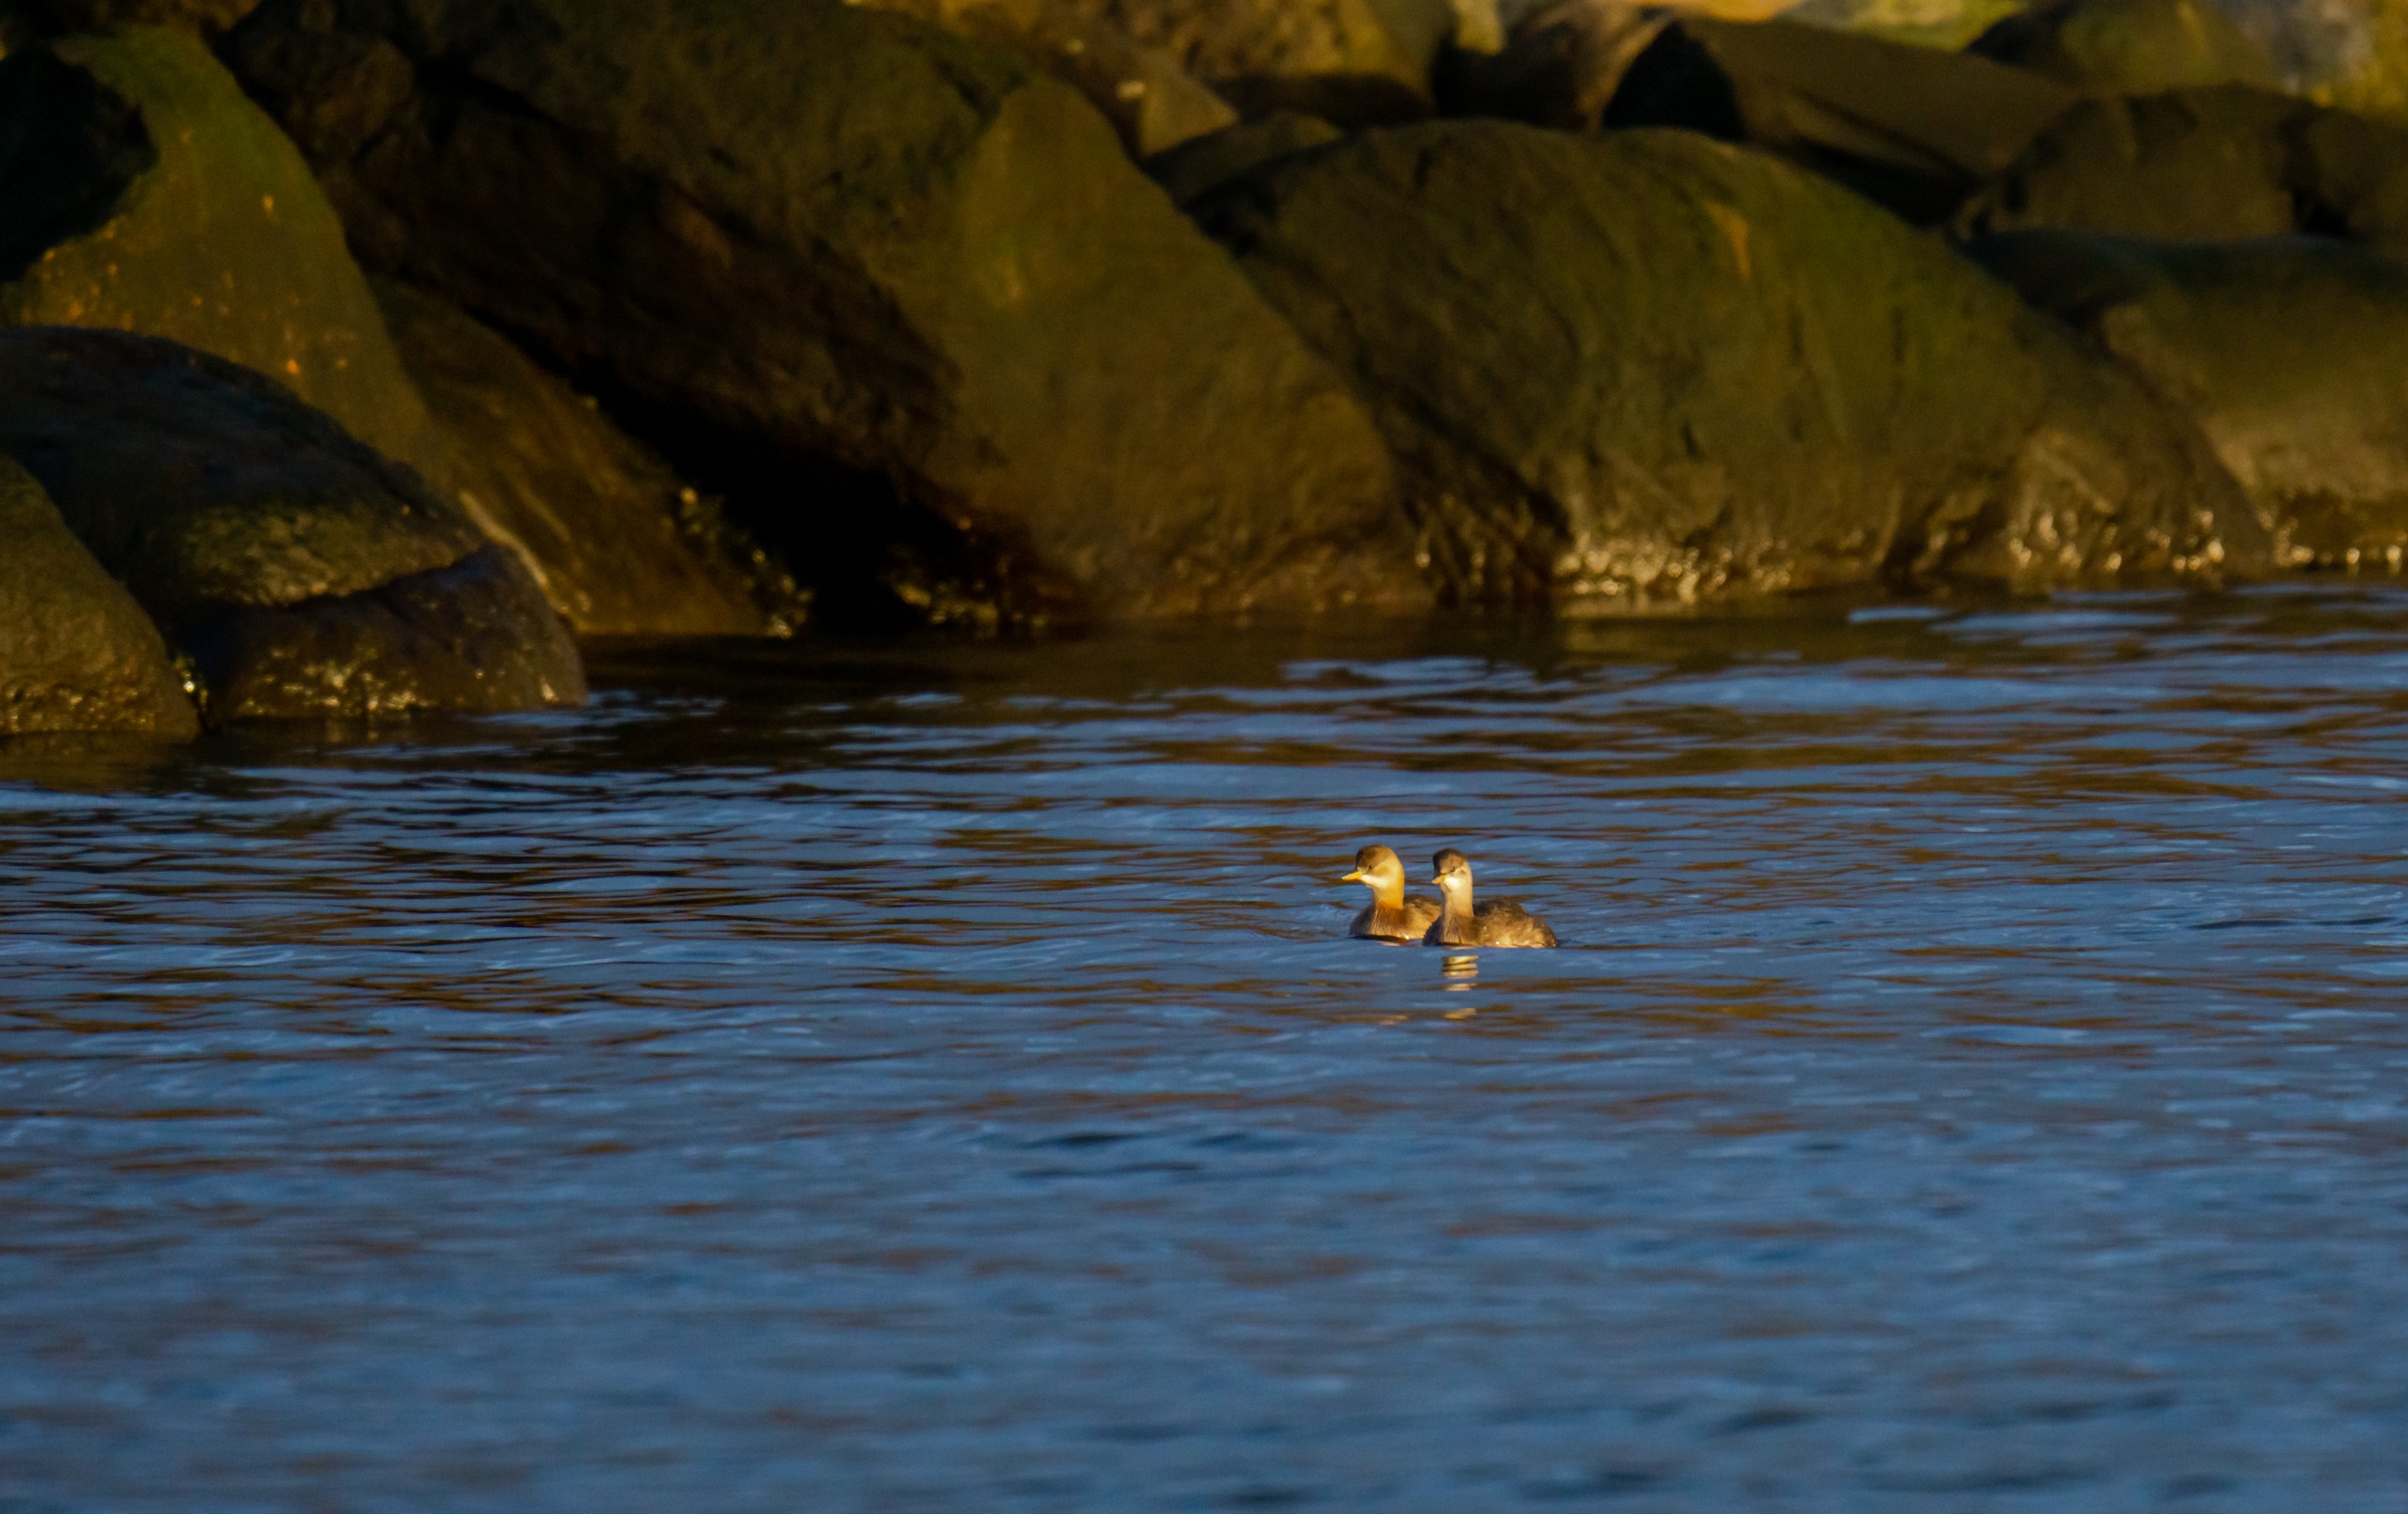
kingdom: Animalia
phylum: Chordata
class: Aves
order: Podicipediformes
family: Podicipedidae
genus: Tachybaptus
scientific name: Tachybaptus ruficollis
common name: Lille lappedykker
